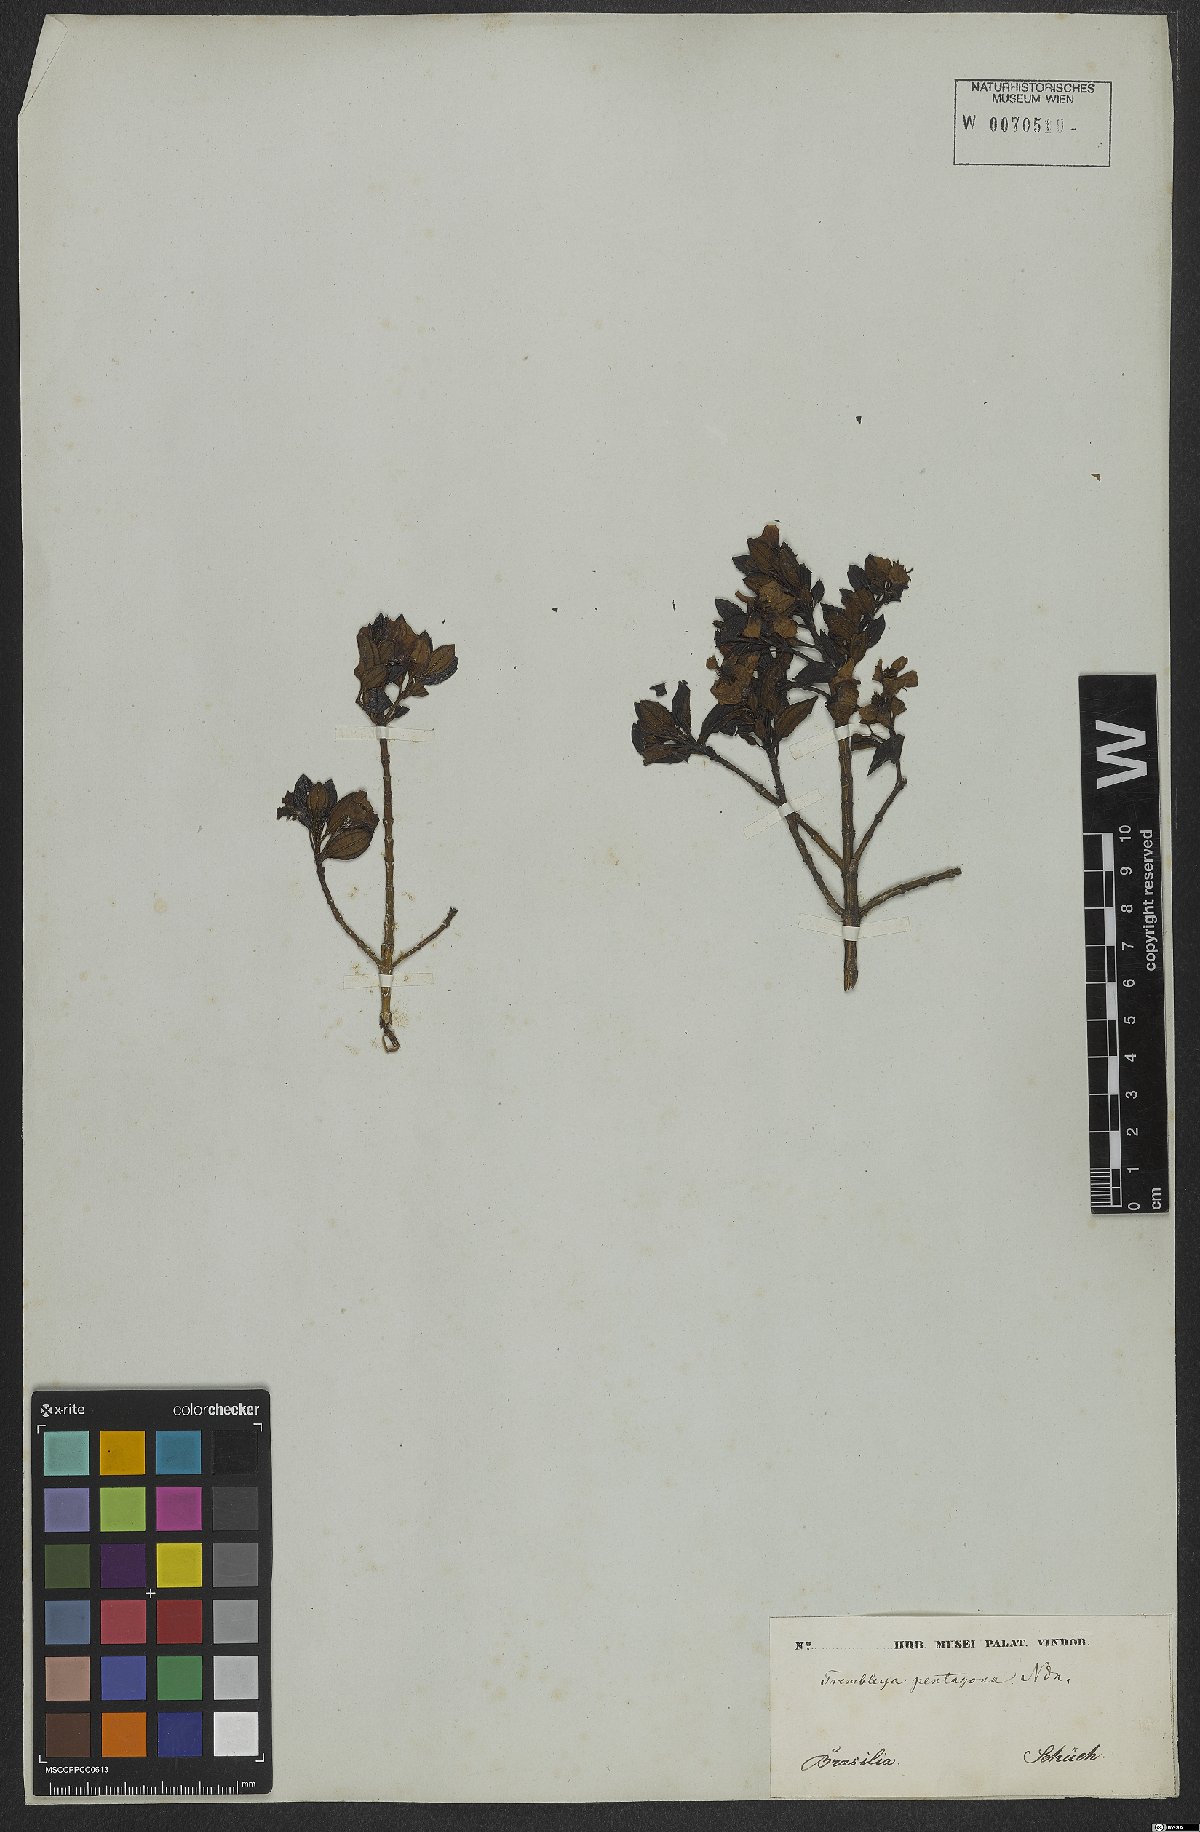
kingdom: Plantae
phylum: Tracheophyta
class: Magnoliopsida
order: Myrtales
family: Melastomataceae
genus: Microlicia
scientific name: Microlicia pentagona
